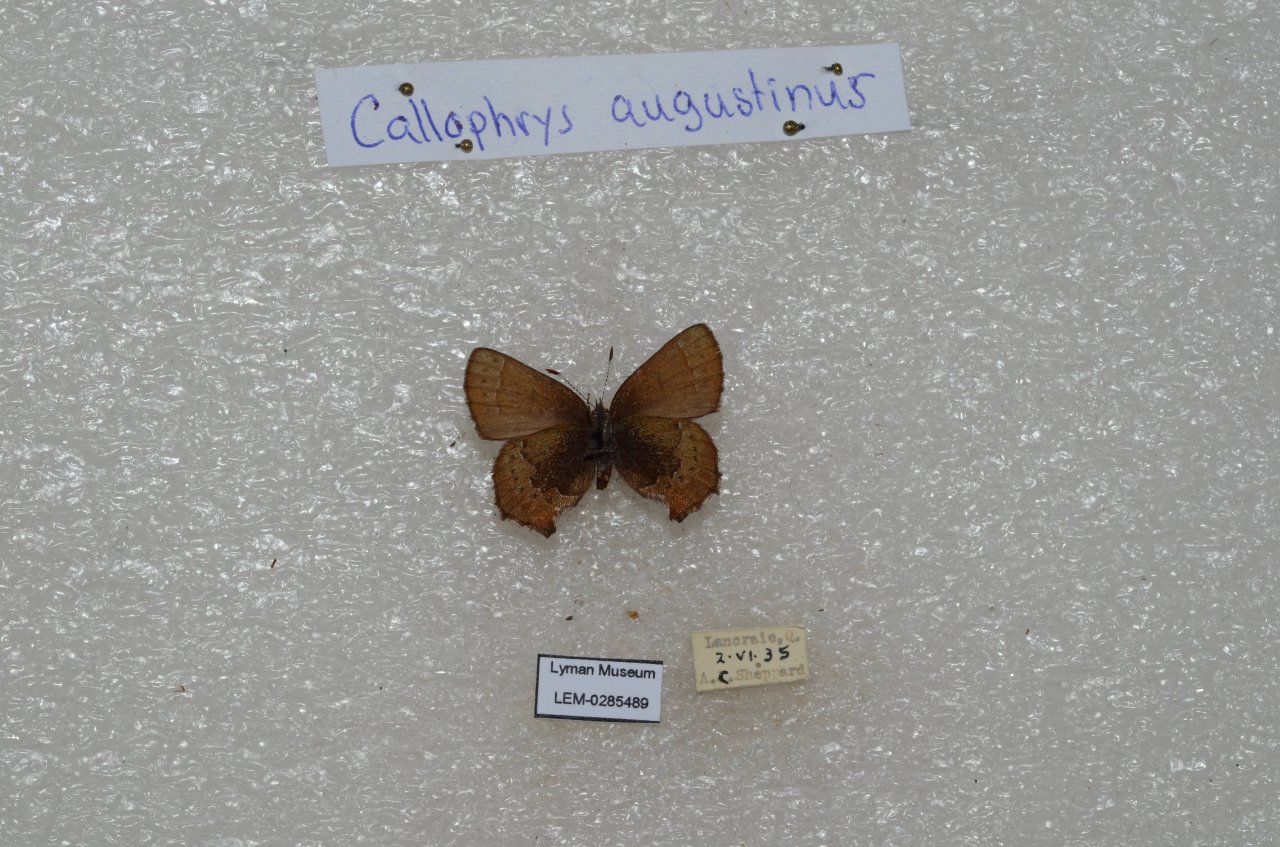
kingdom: Animalia
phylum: Arthropoda
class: Insecta
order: Lepidoptera
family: Lycaenidae
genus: Incisalia
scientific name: Incisalia irioides
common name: Brown Elfin
